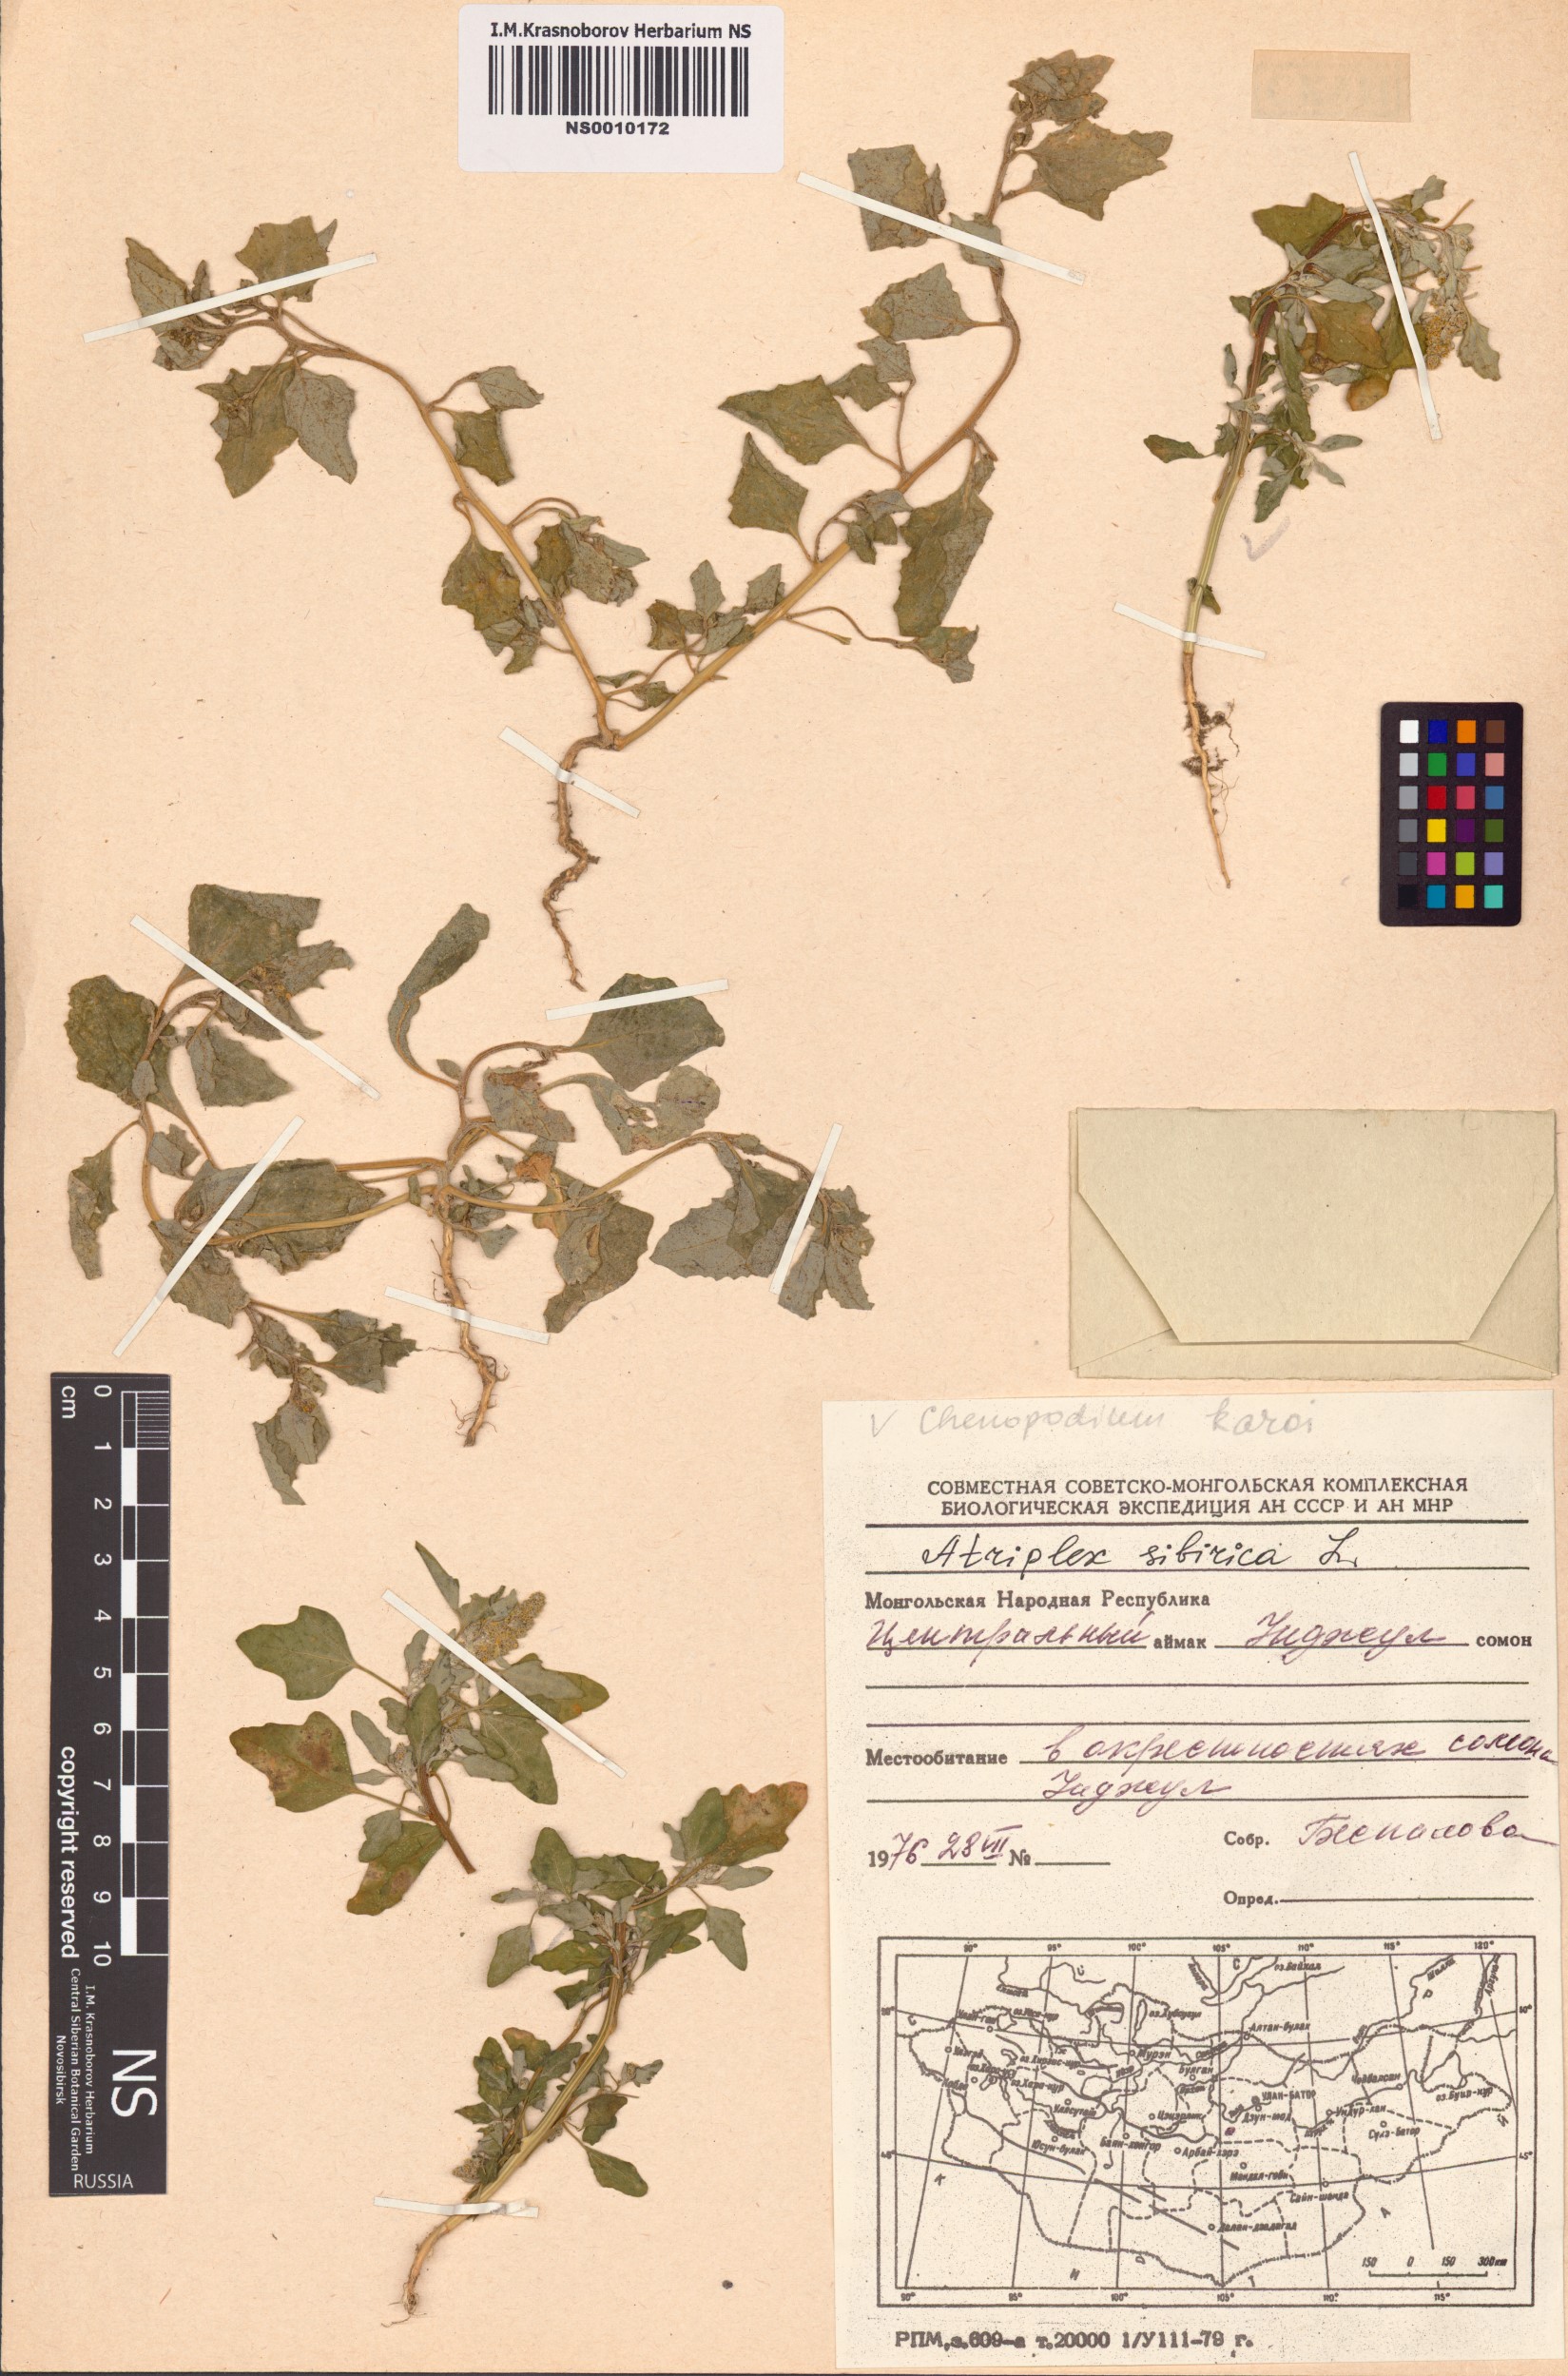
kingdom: Plantae
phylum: Tracheophyta
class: Magnoliopsida
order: Caryophyllales
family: Amaranthaceae
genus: Atriplex
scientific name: Atriplex sibirica
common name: Siberian saltbush
